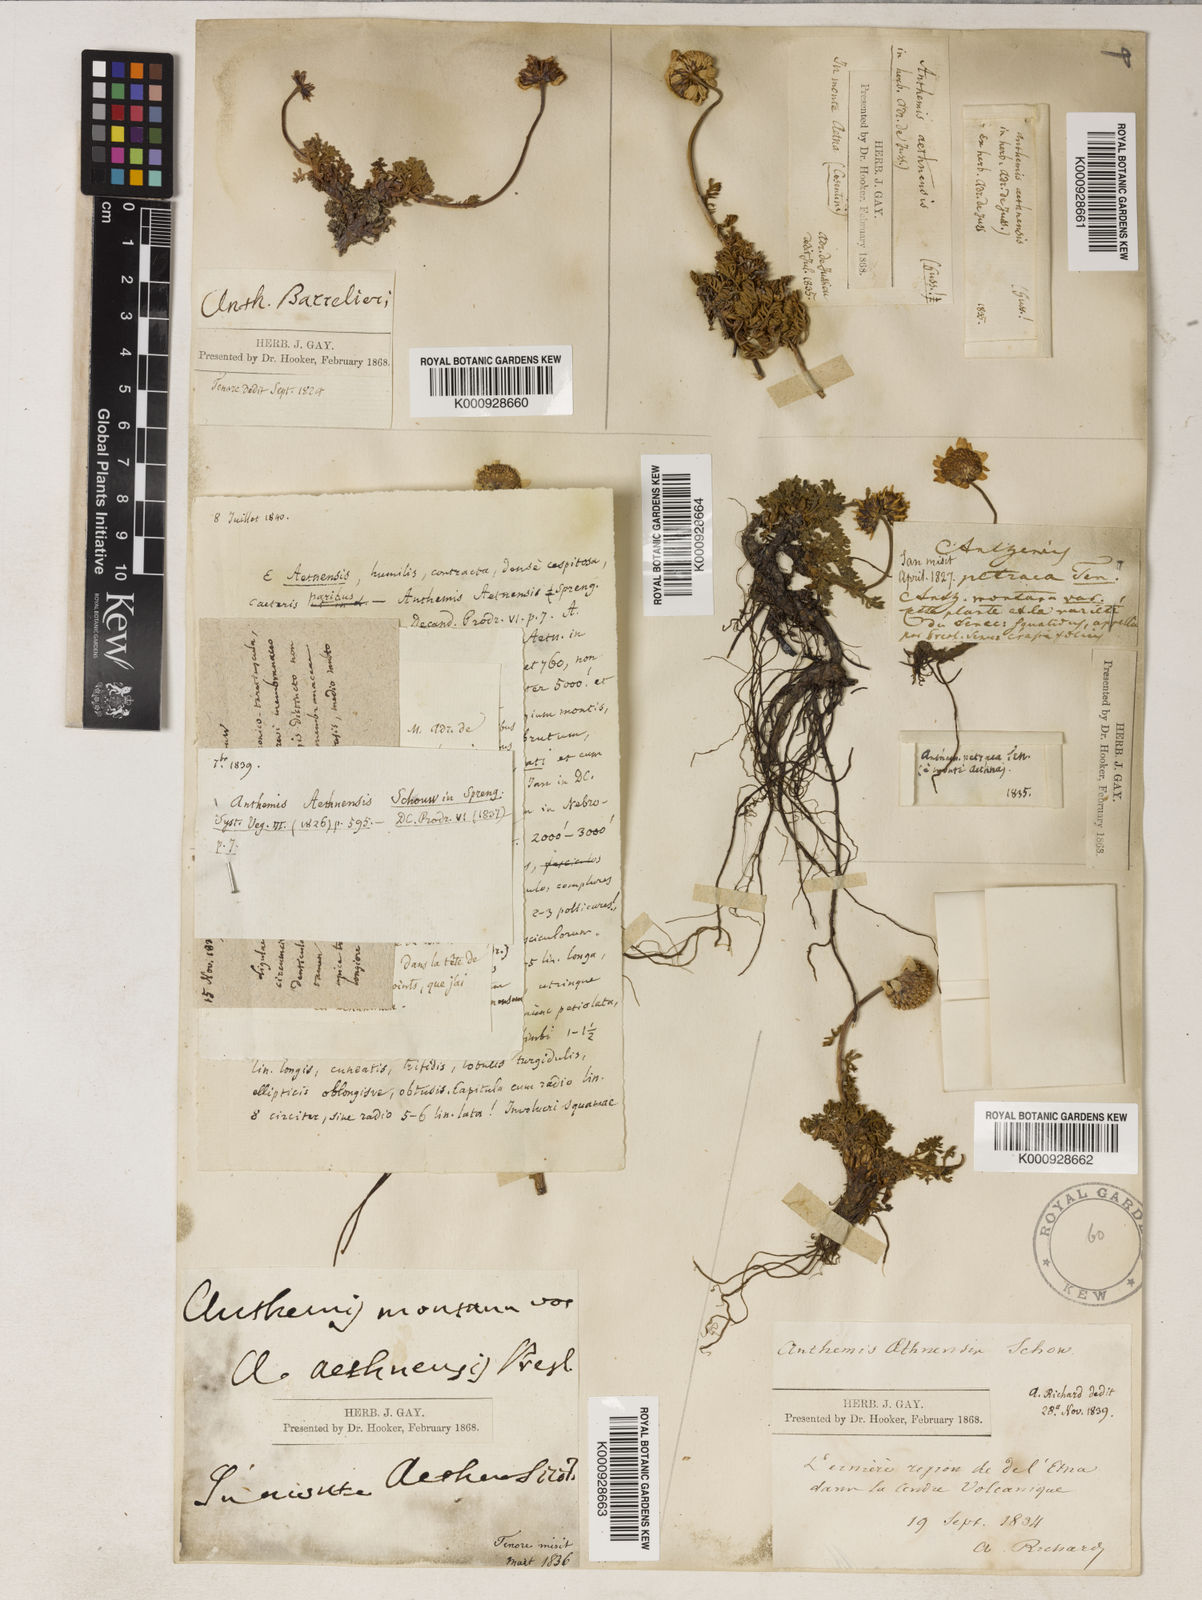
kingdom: Plantae
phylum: Tracheophyta
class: Magnoliopsida
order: Asterales
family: Asteraceae
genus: Anthemis
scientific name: Anthemis aetnensis
